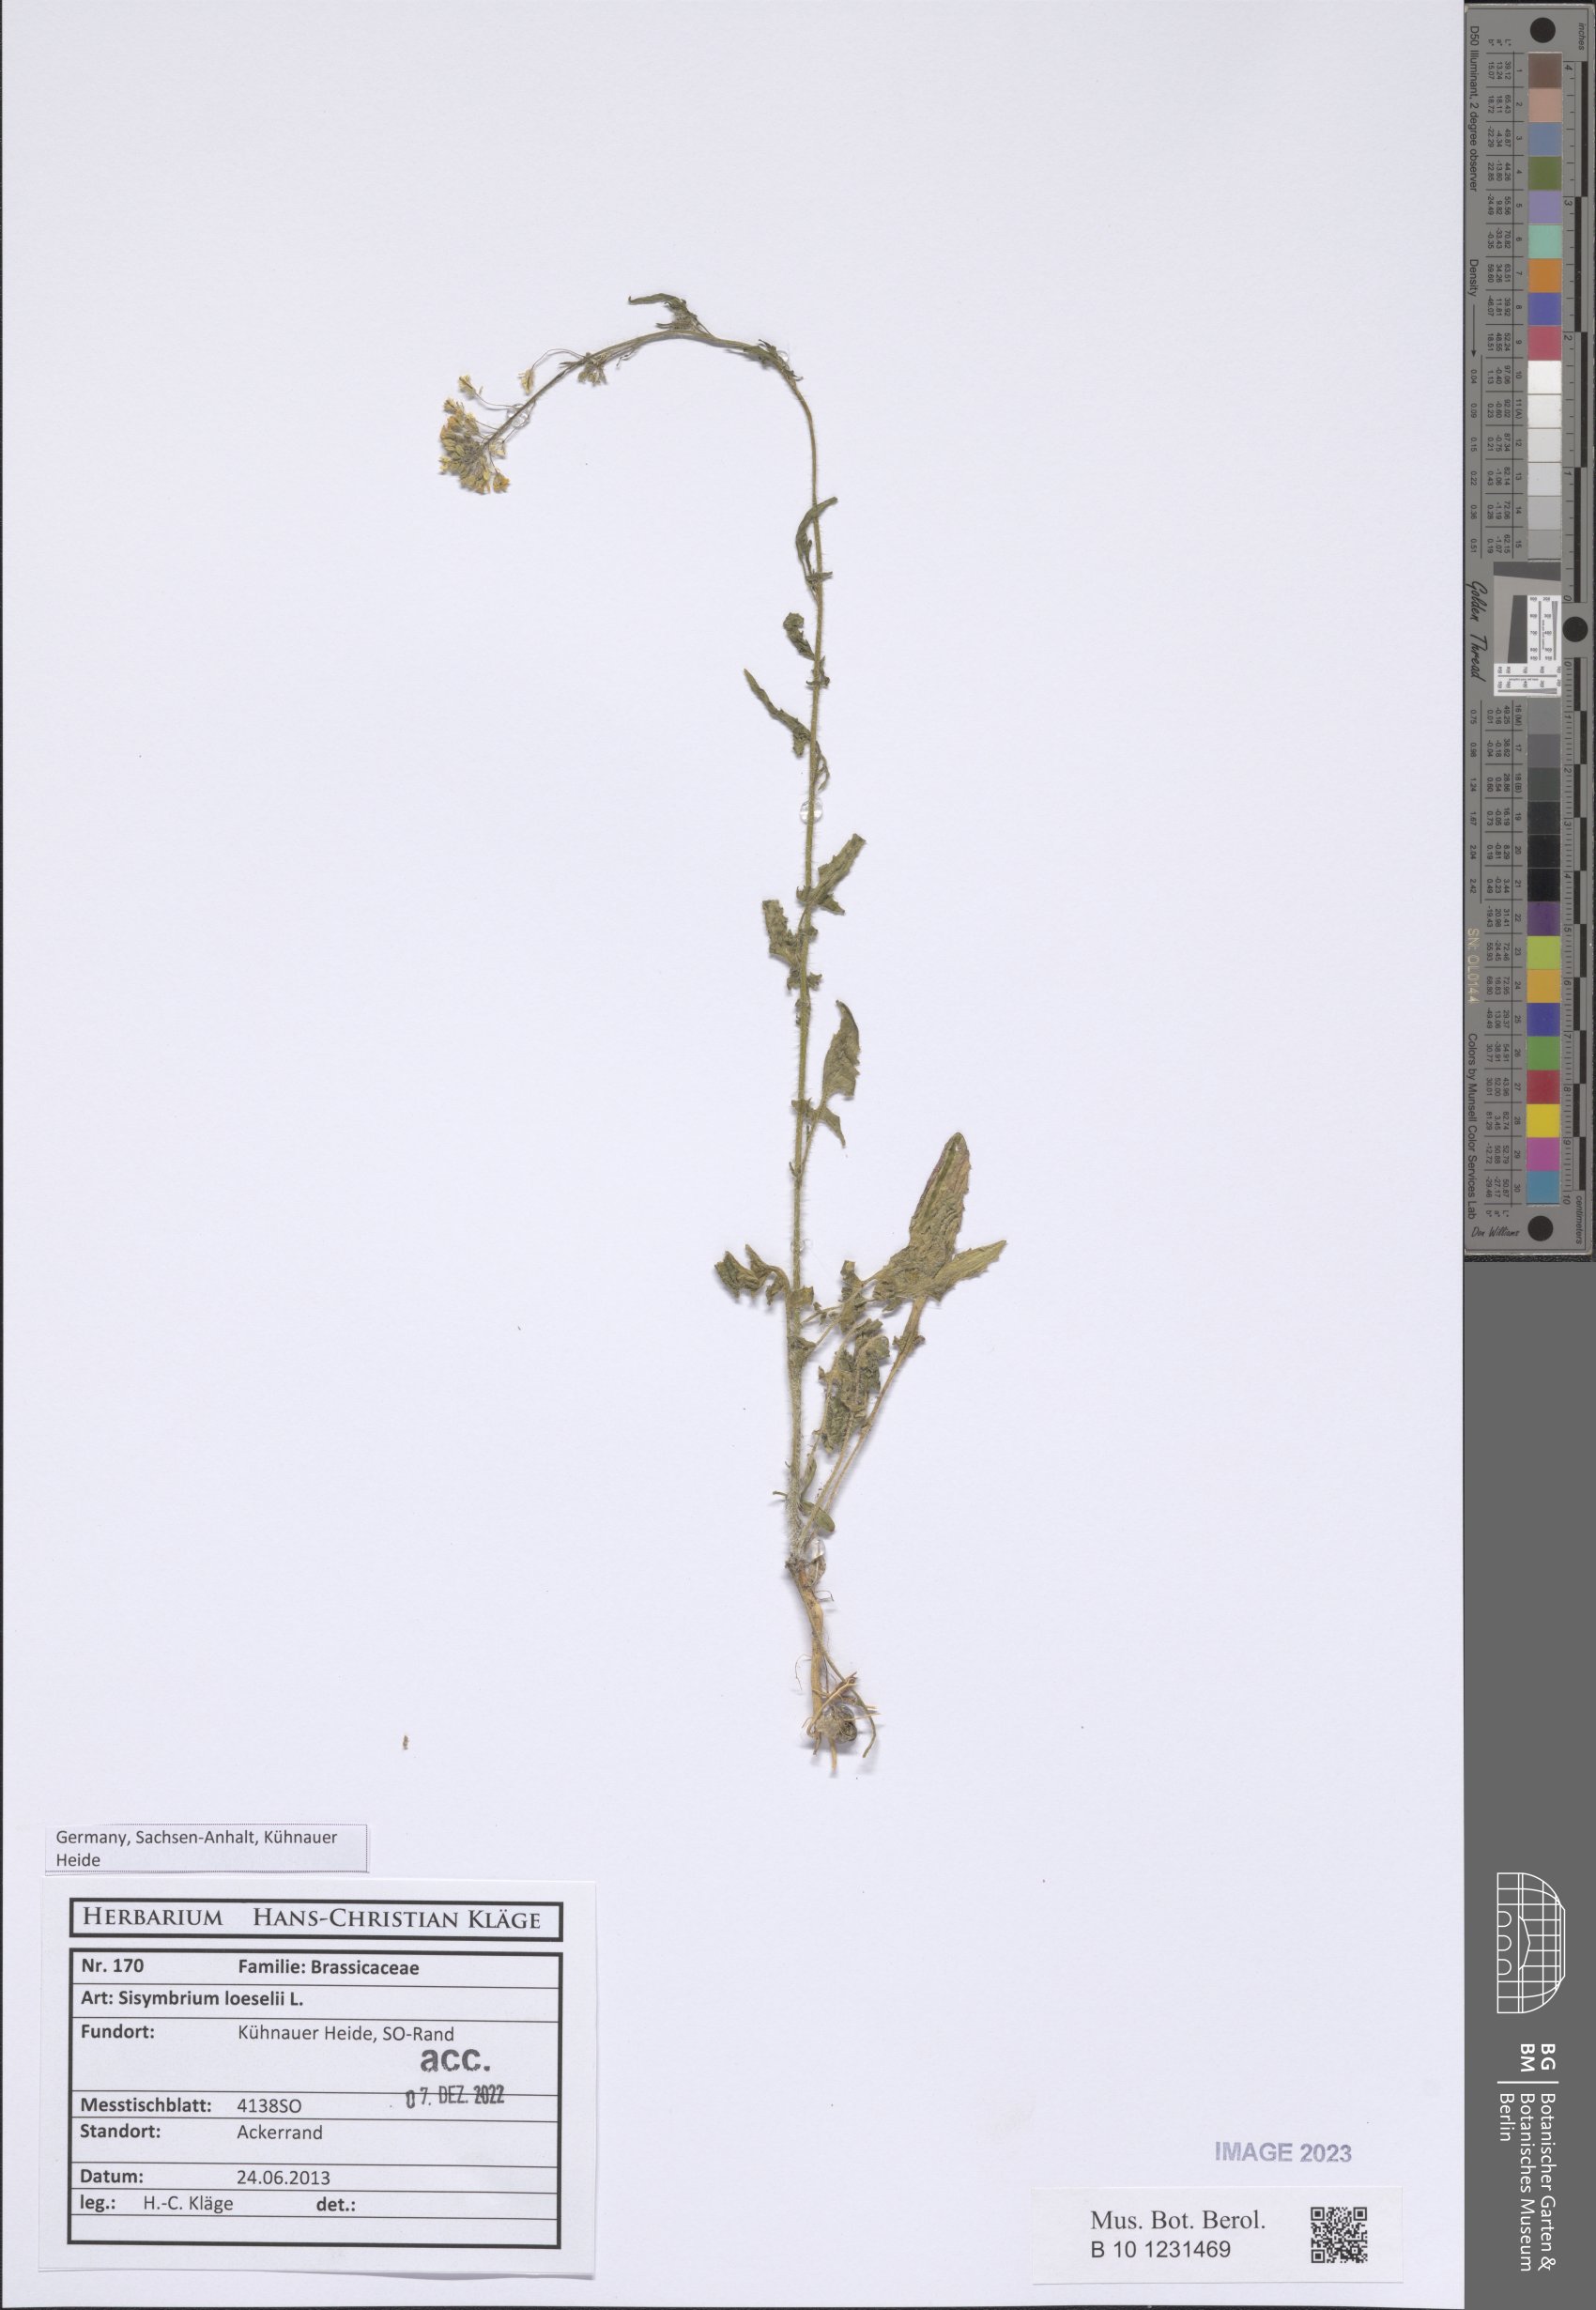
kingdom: Plantae
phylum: Tracheophyta
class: Magnoliopsida
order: Brassicales
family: Brassicaceae
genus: Sisymbrium
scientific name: Sisymbrium loeselii
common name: False london-rocket
